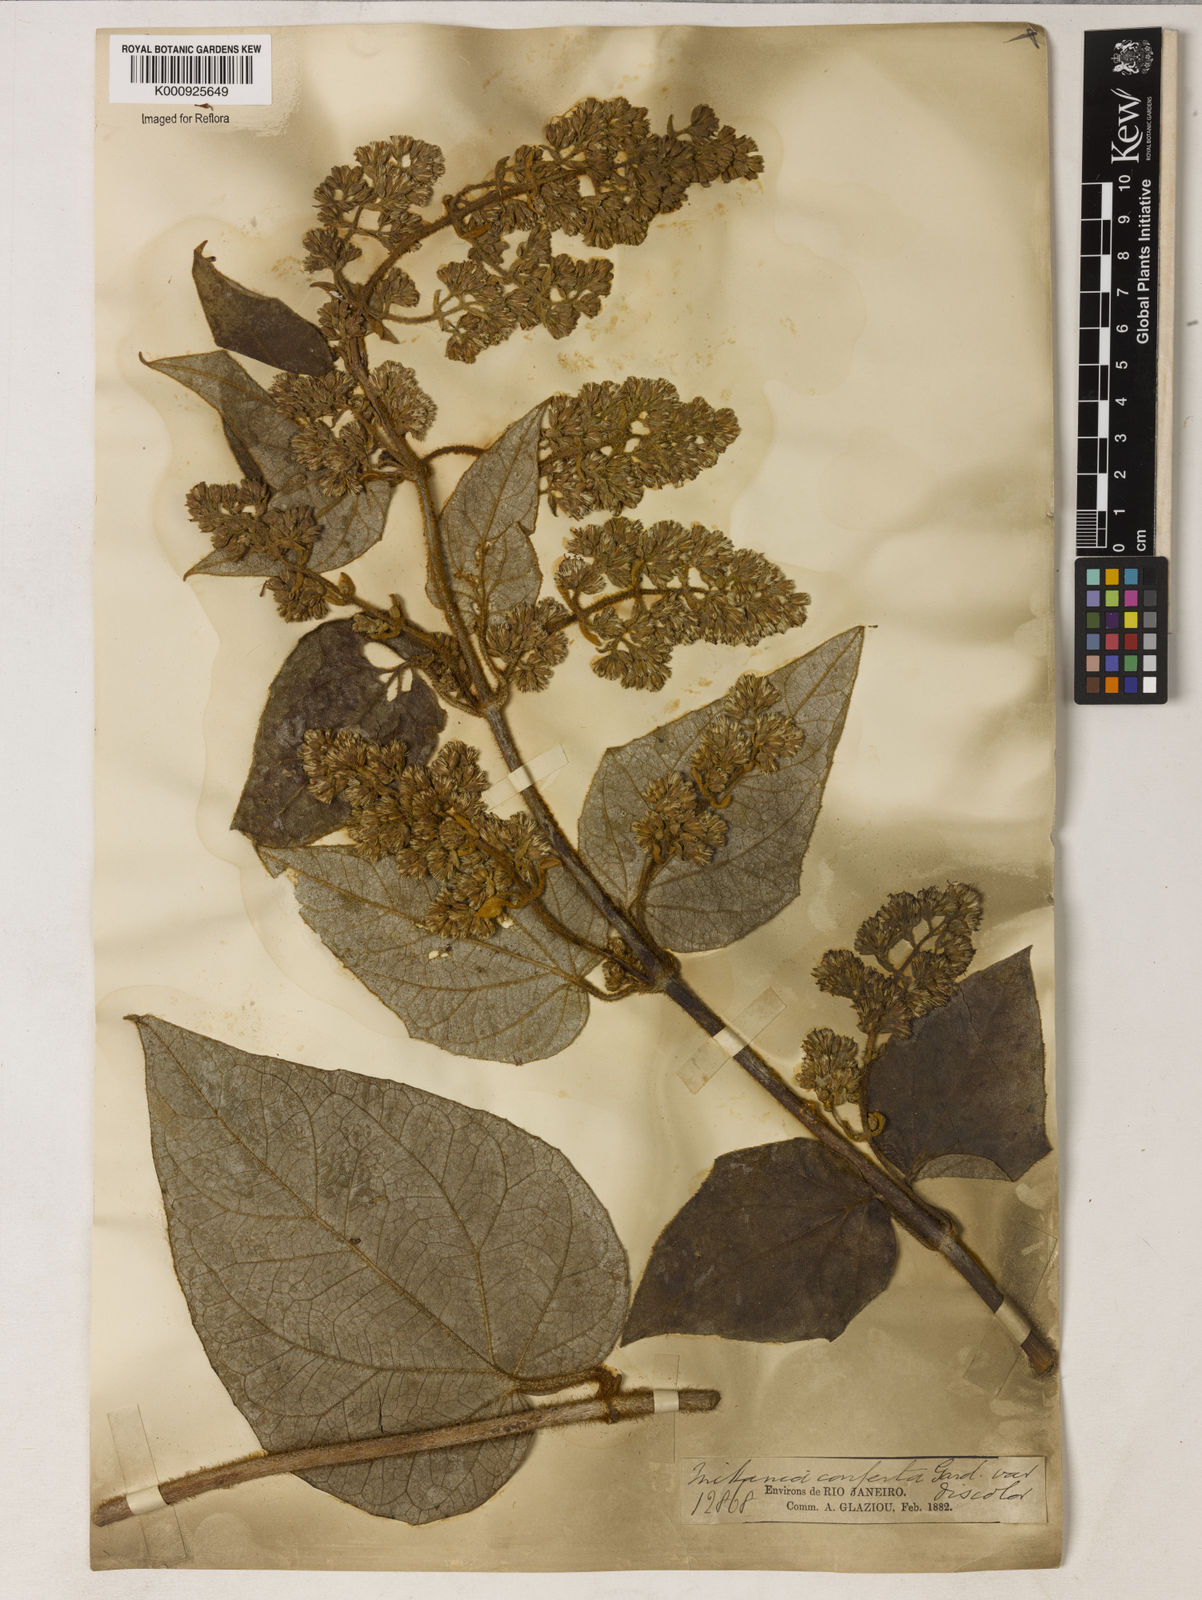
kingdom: Plantae
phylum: Tracheophyta
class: Magnoliopsida
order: Asterales
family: Asteraceae
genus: Mikania
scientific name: Mikania congesta
